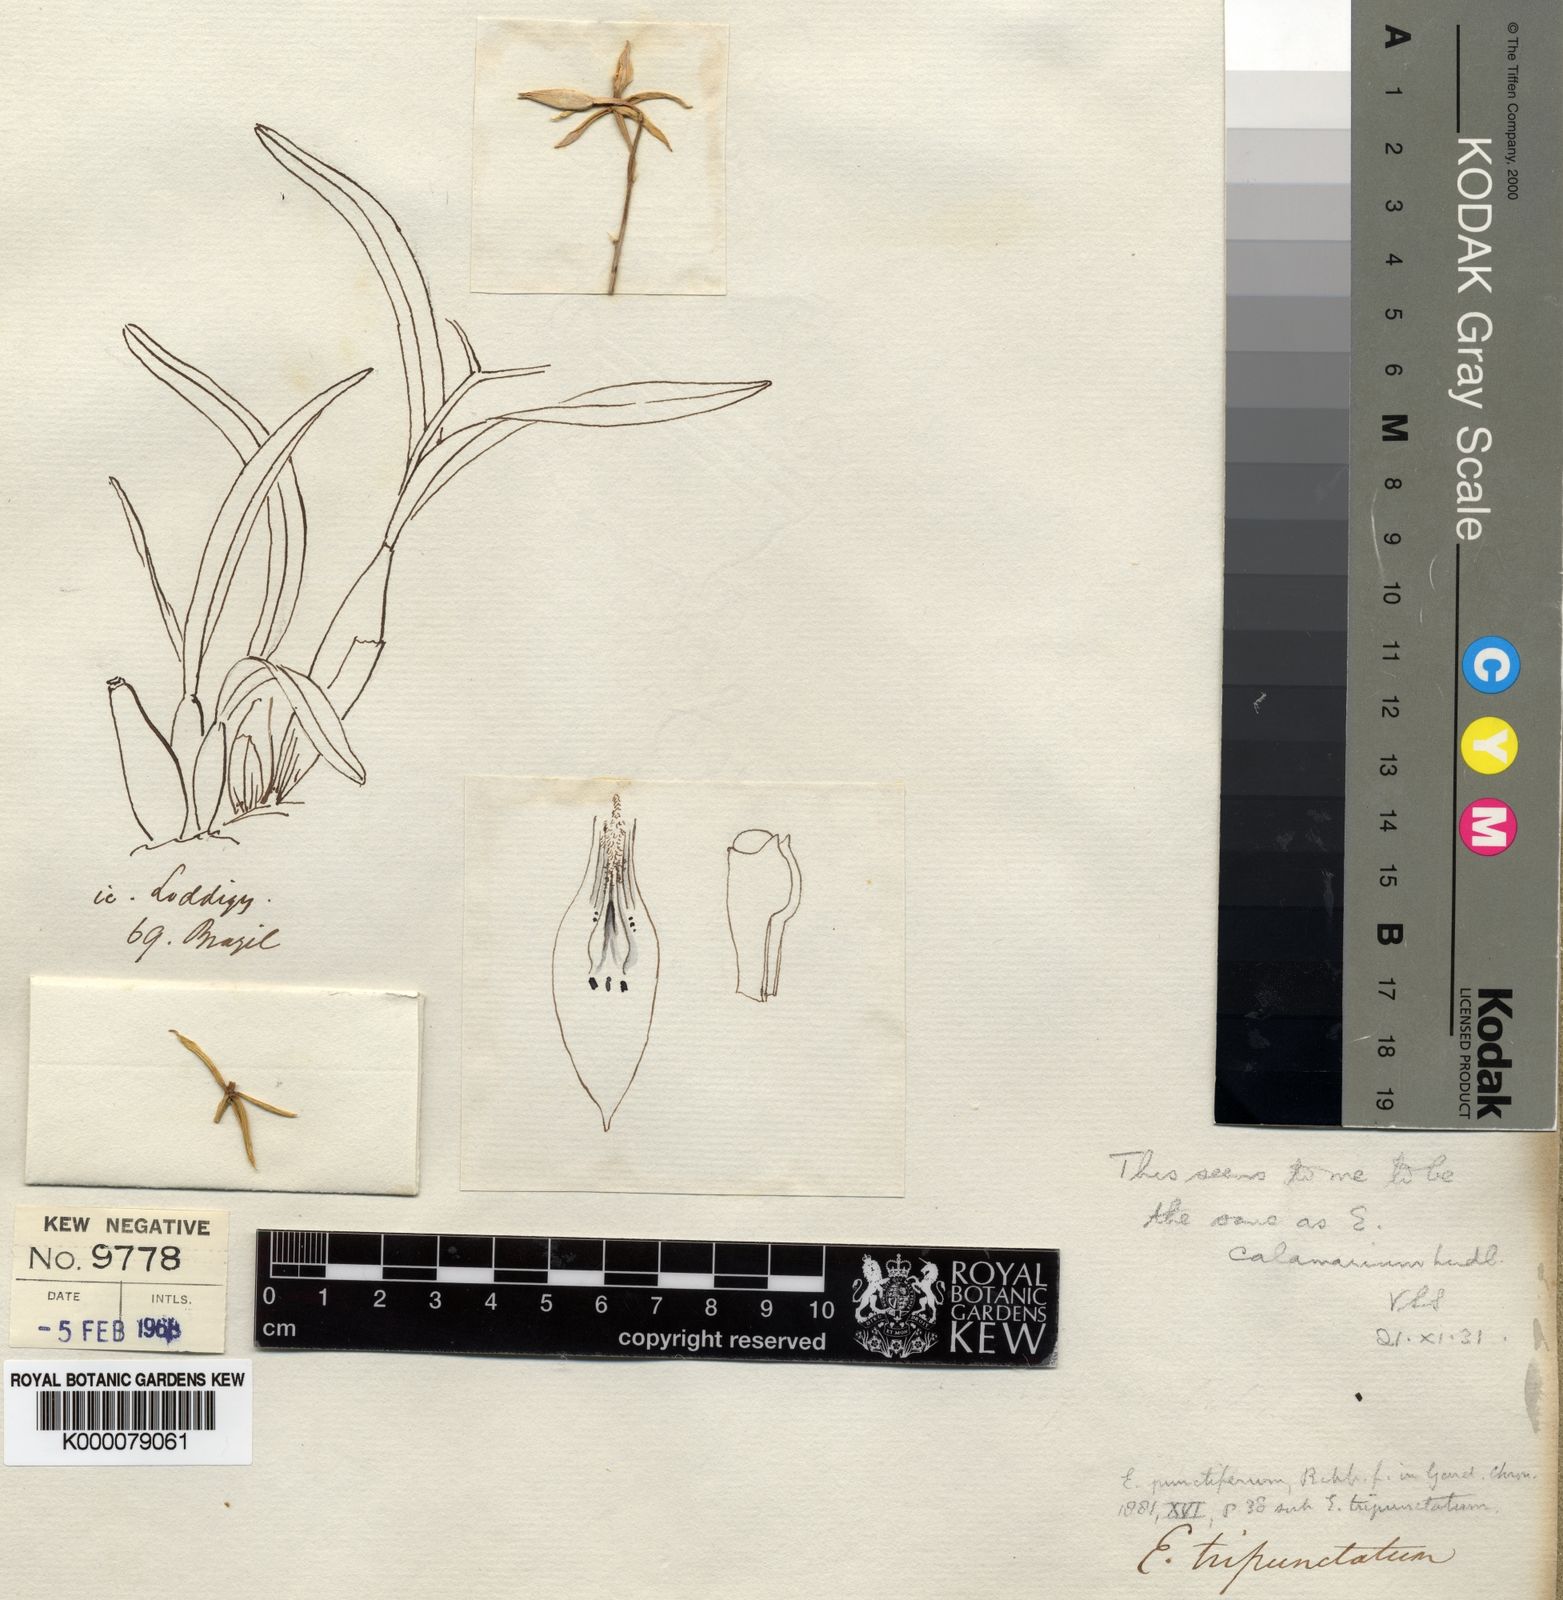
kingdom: Plantae
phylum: Tracheophyta
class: Liliopsida
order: Asparagales
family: Orchidaceae
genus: Prosthechea
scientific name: Prosthechea micropus
